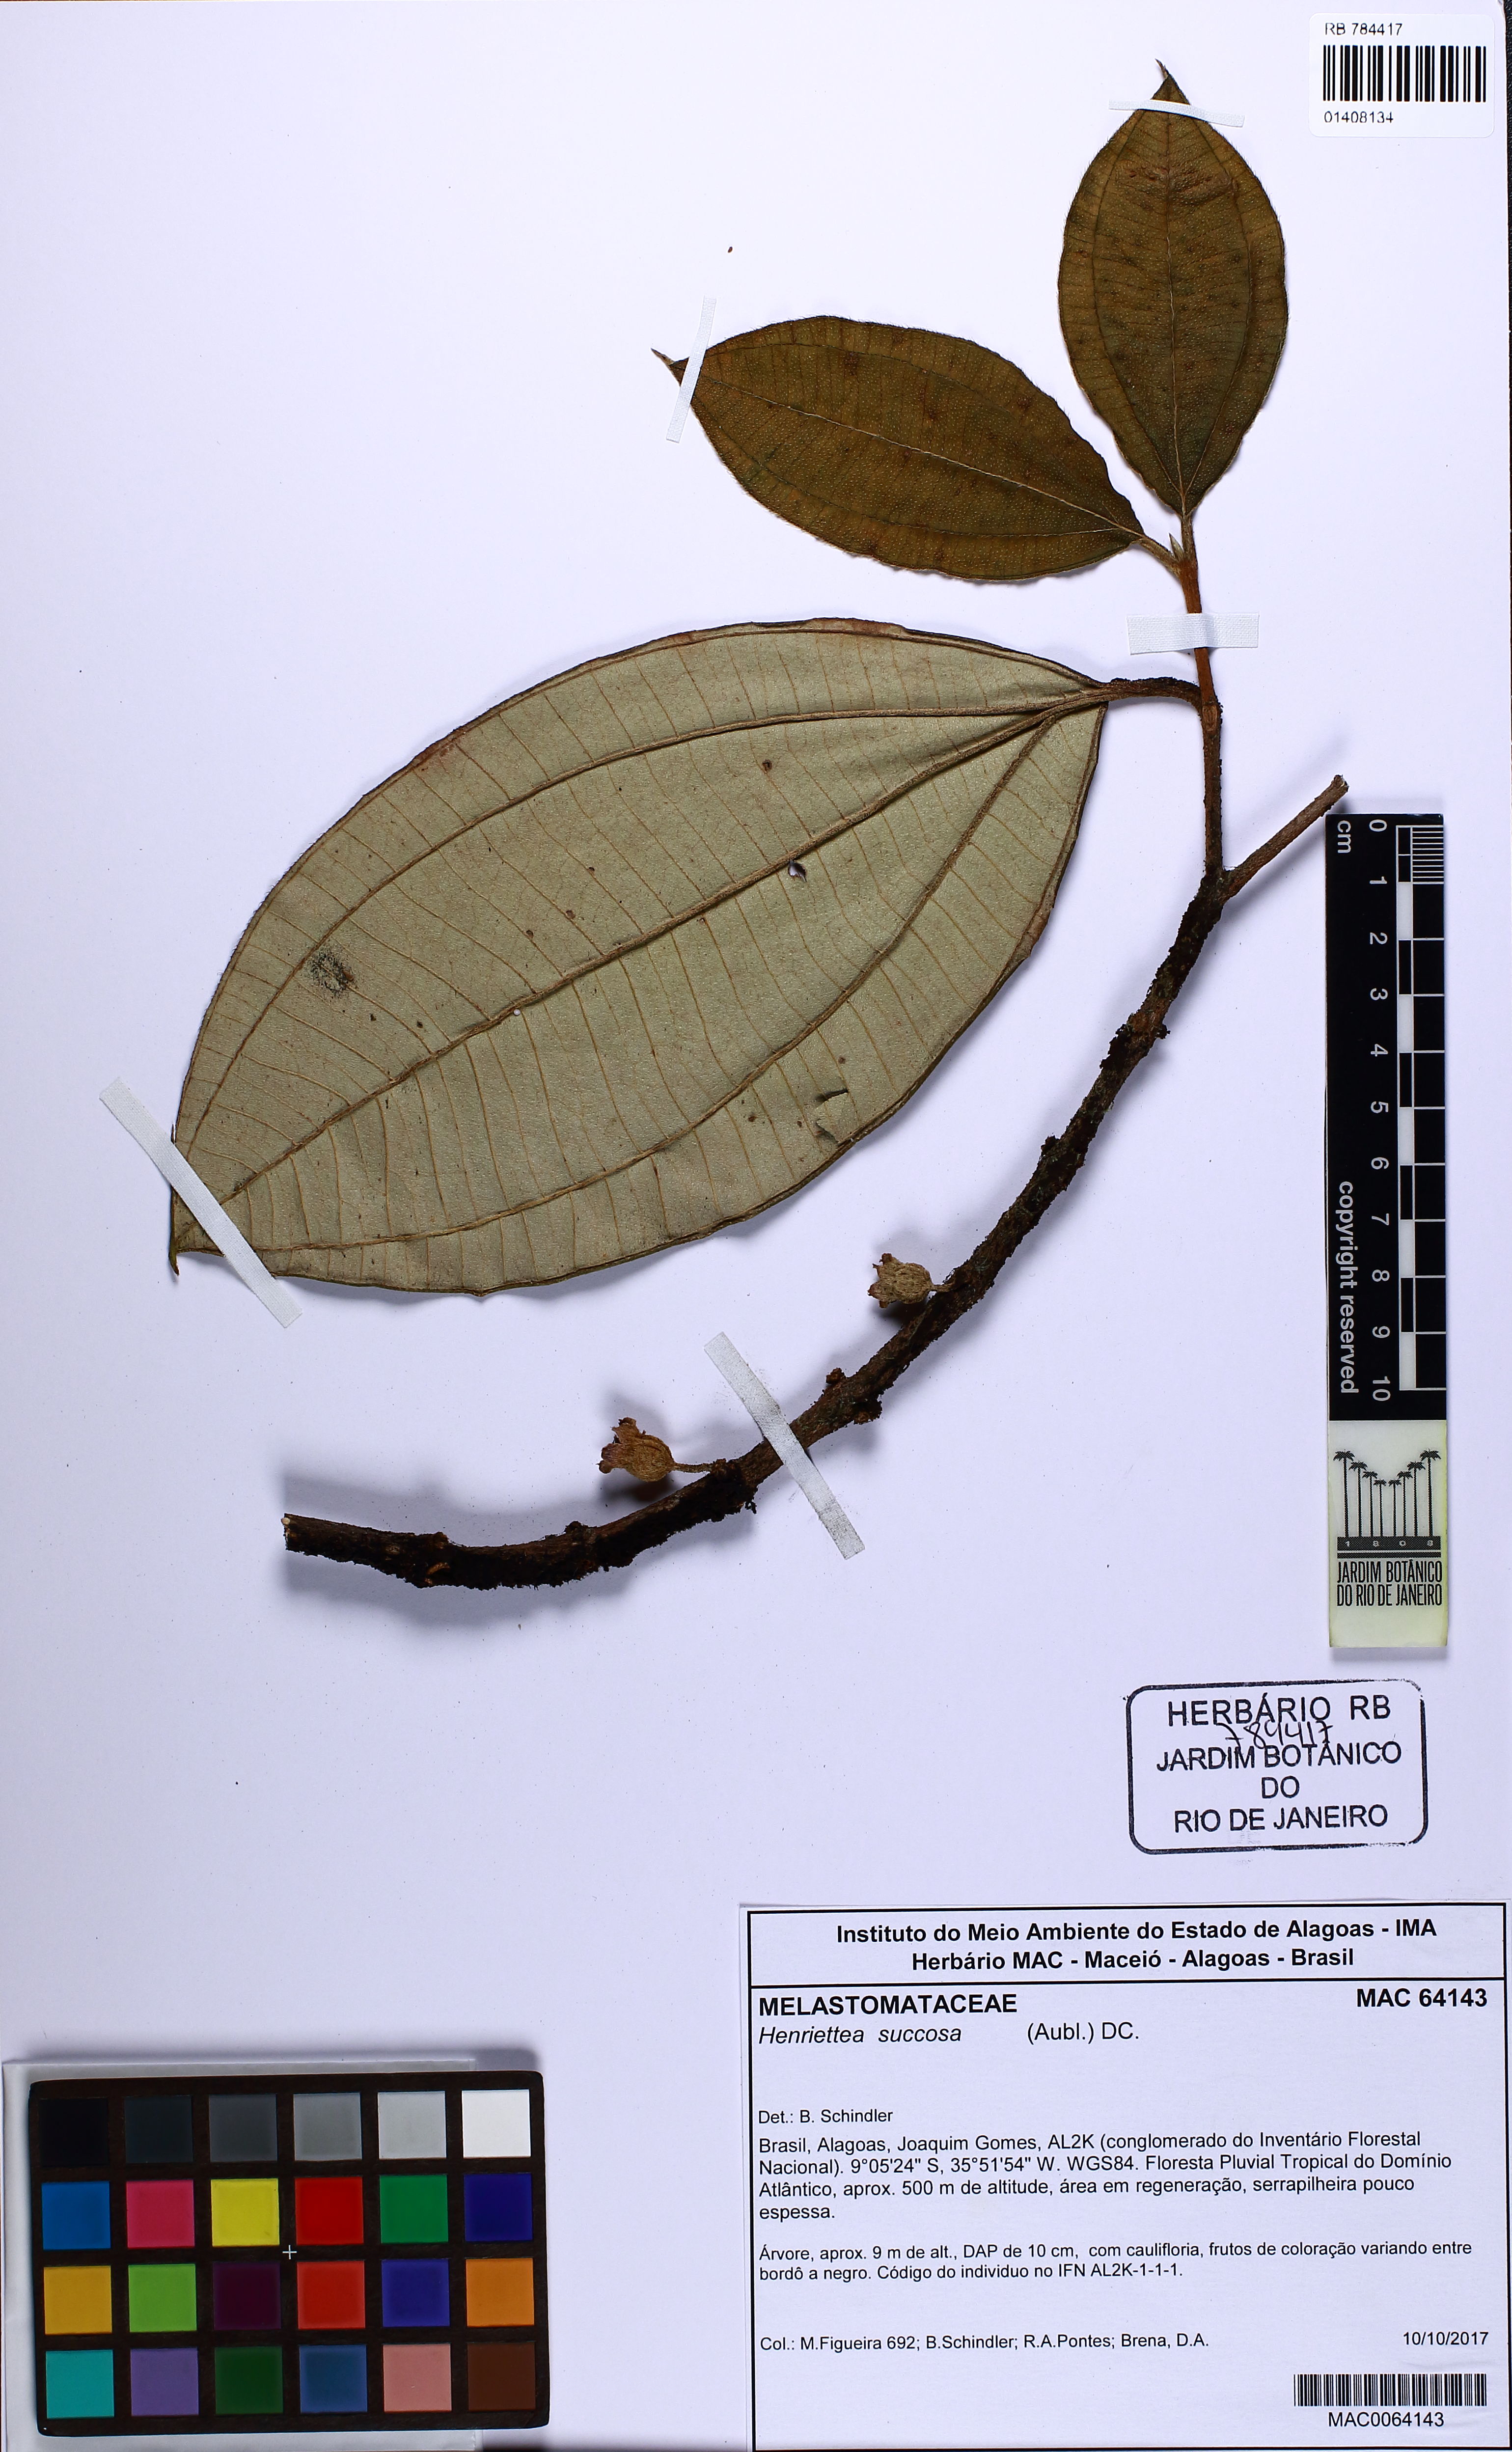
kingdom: Plantae
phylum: Tracheophyta
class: Magnoliopsida
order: Myrtales
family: Melastomataceae
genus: Henriettea
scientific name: Henriettea succosa
